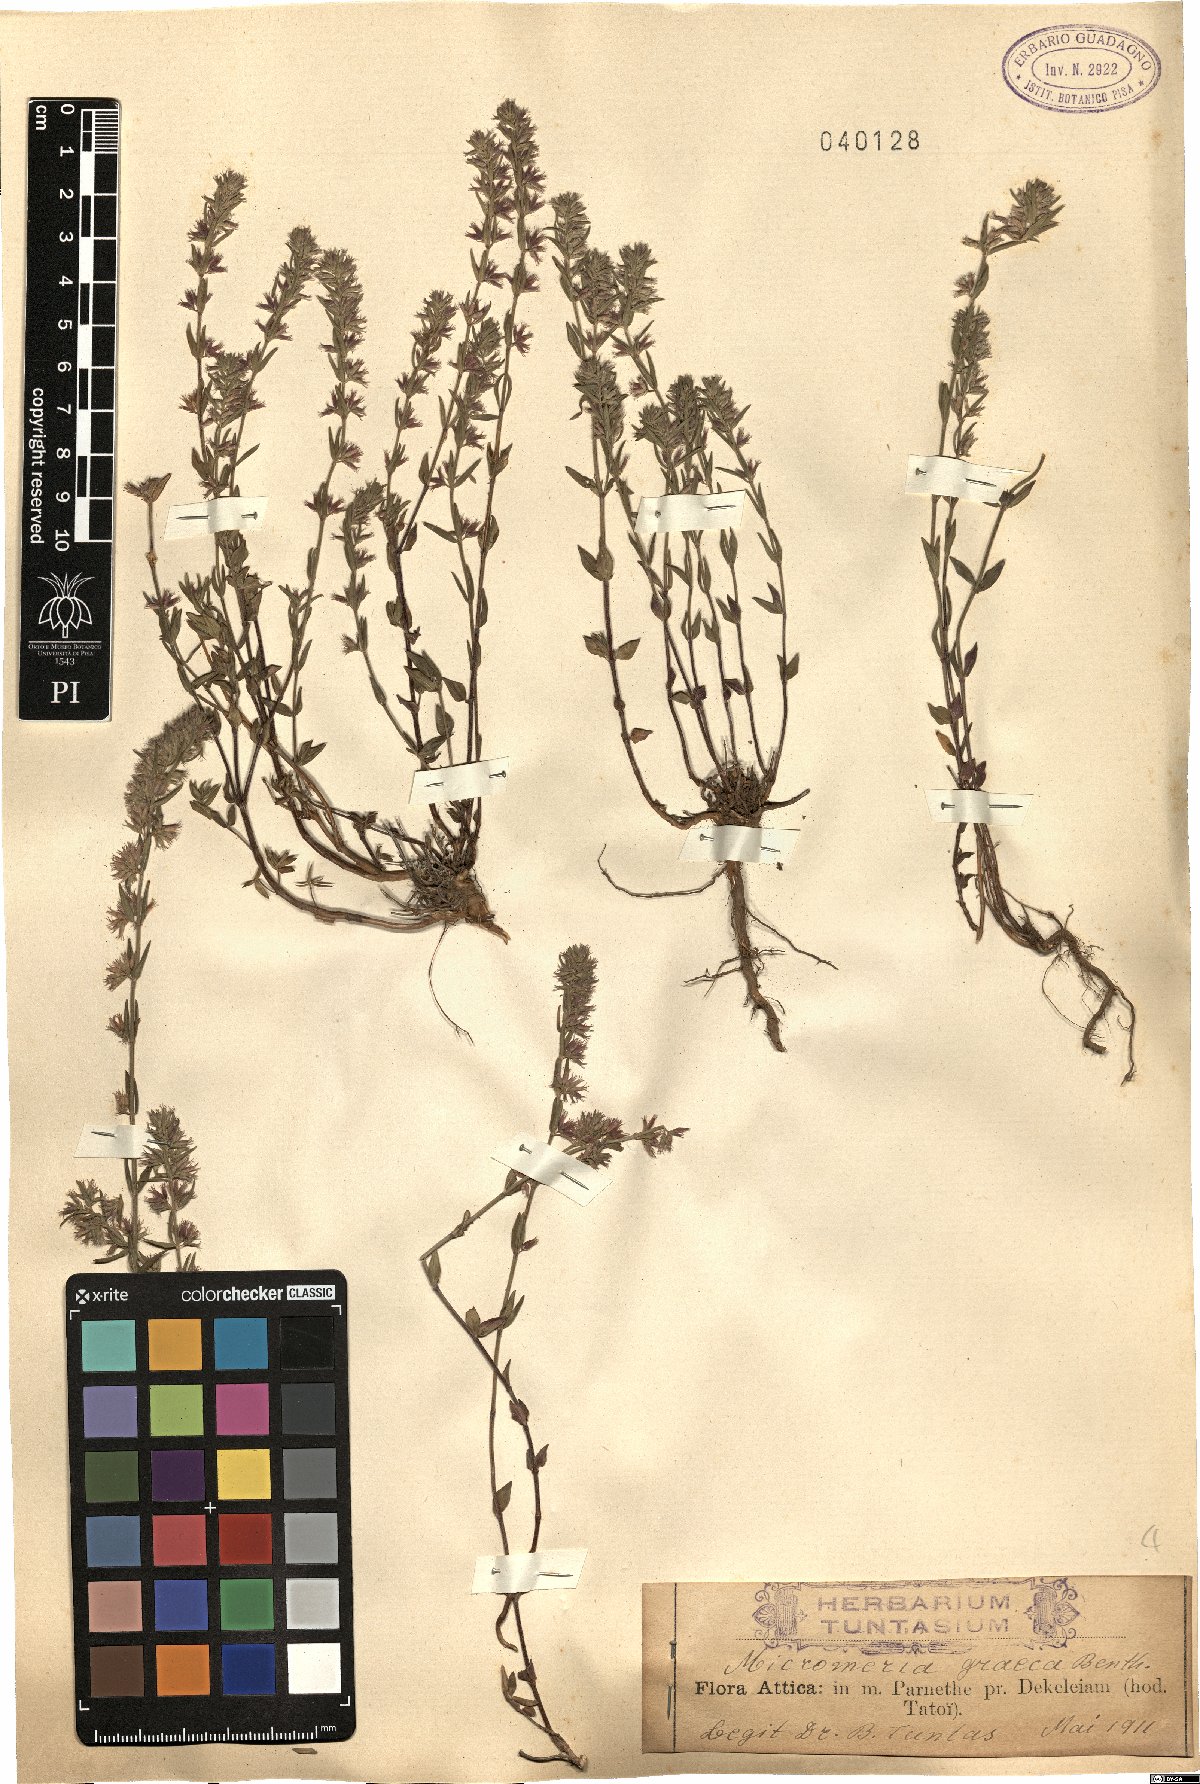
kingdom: Plantae
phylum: Tracheophyta
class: Magnoliopsida
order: Lamiales
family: Lamiaceae
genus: Micromeria
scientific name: Micromeria graeca
